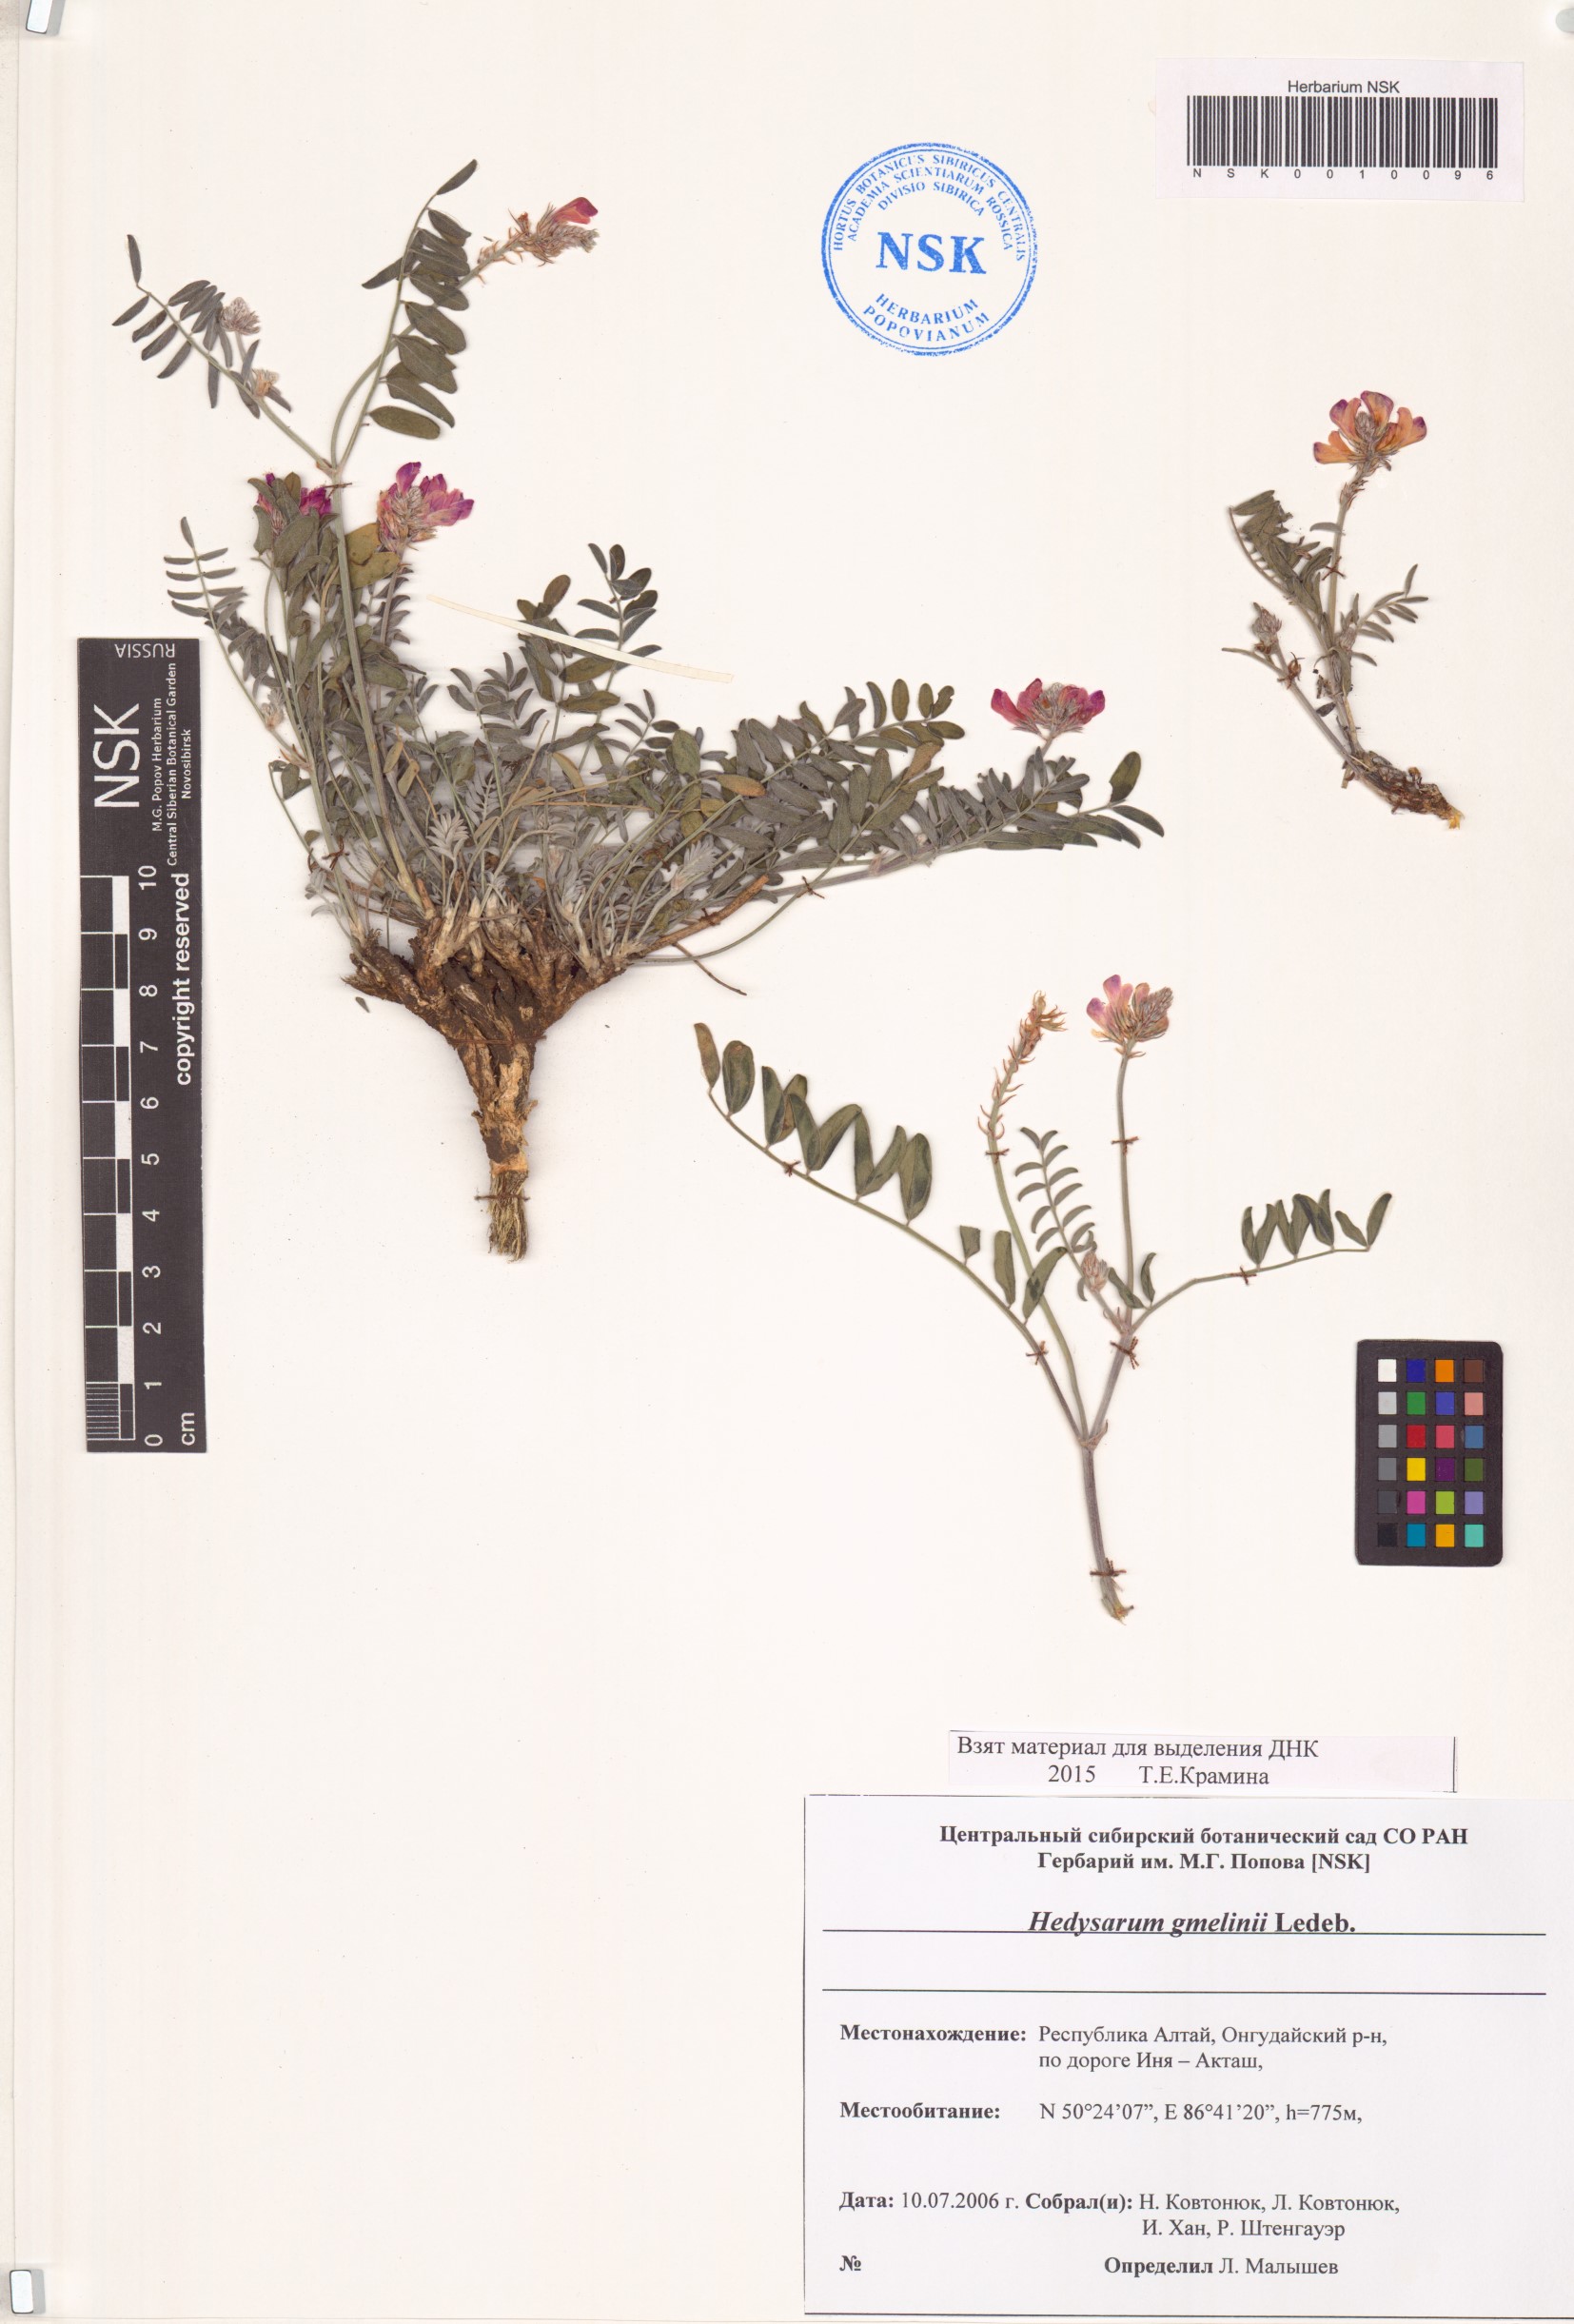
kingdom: Plantae
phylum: Tracheophyta
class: Magnoliopsida
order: Fabales
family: Fabaceae
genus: Hedysarum
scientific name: Hedysarum gmelinii
